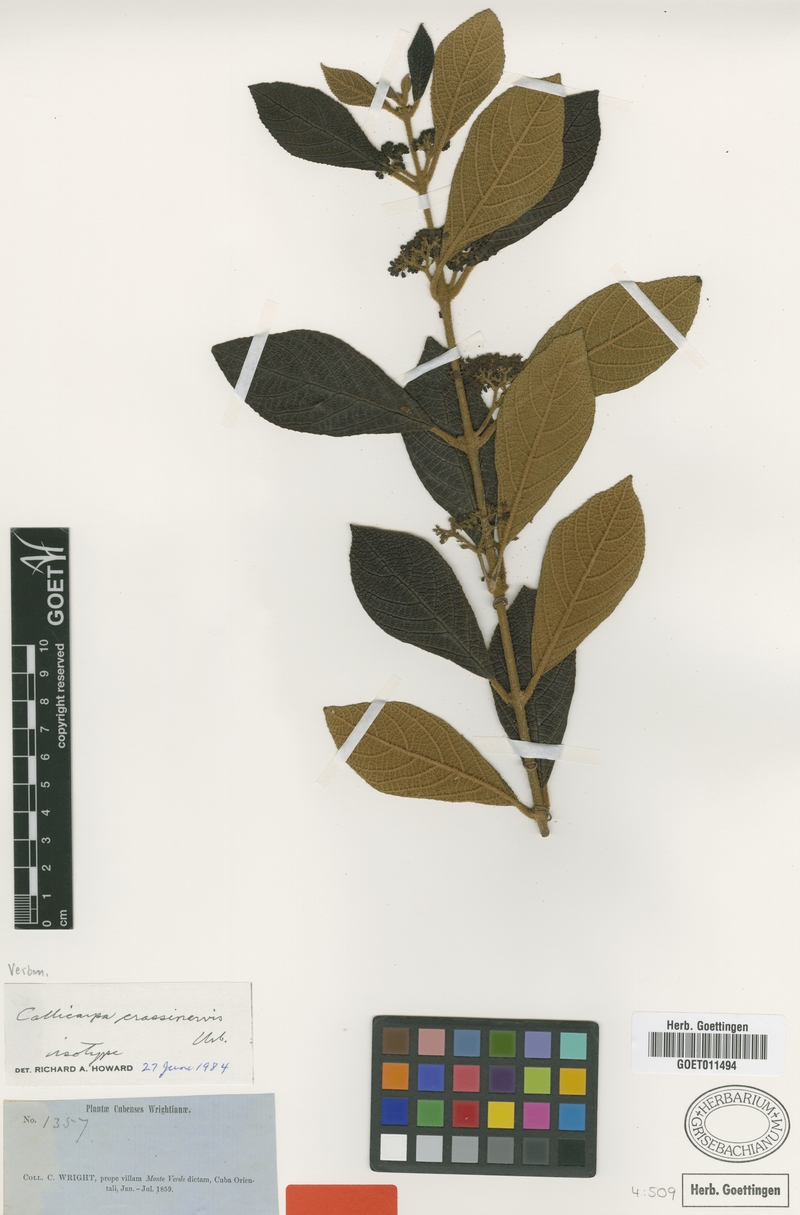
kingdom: Plantae
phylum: Tracheophyta
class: Magnoliopsida
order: Lamiales
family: Lamiaceae
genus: Callicarpa
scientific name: Callicarpa crassinervis
